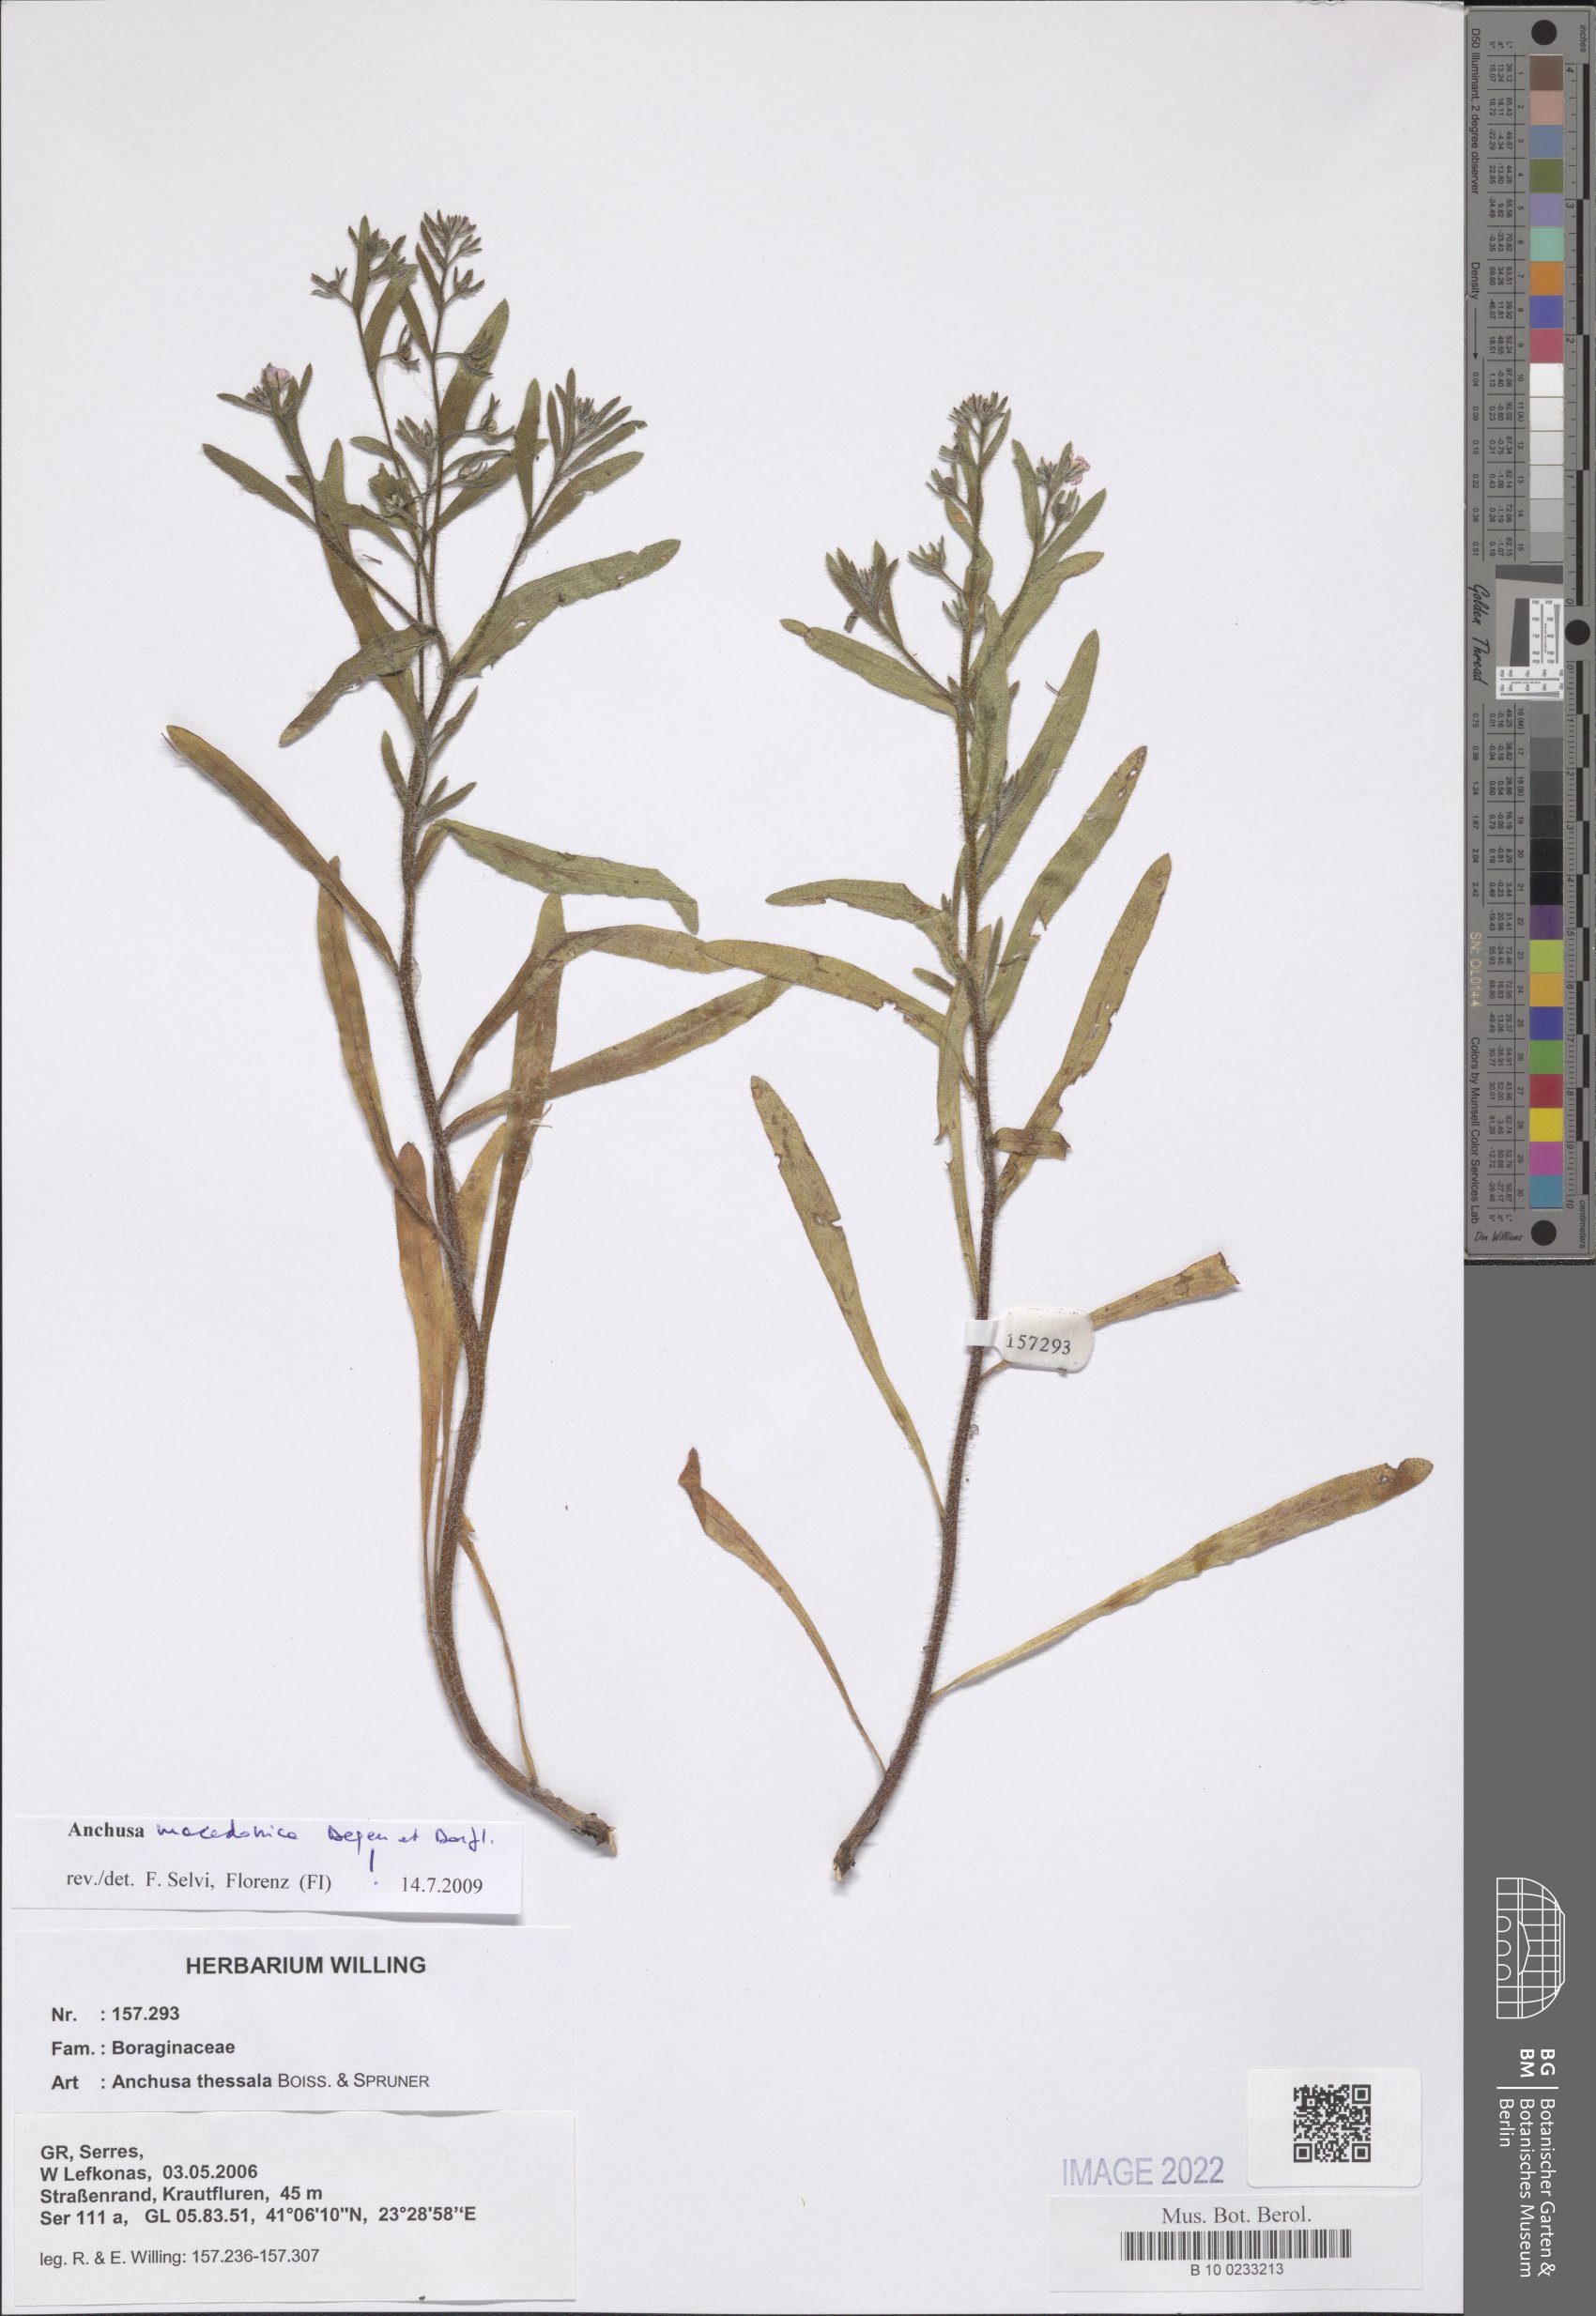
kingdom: Plantae
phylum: Tracheophyta
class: Magnoliopsida
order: Boraginales
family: Boraginaceae
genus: Anchusa
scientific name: Anchusa thessala
